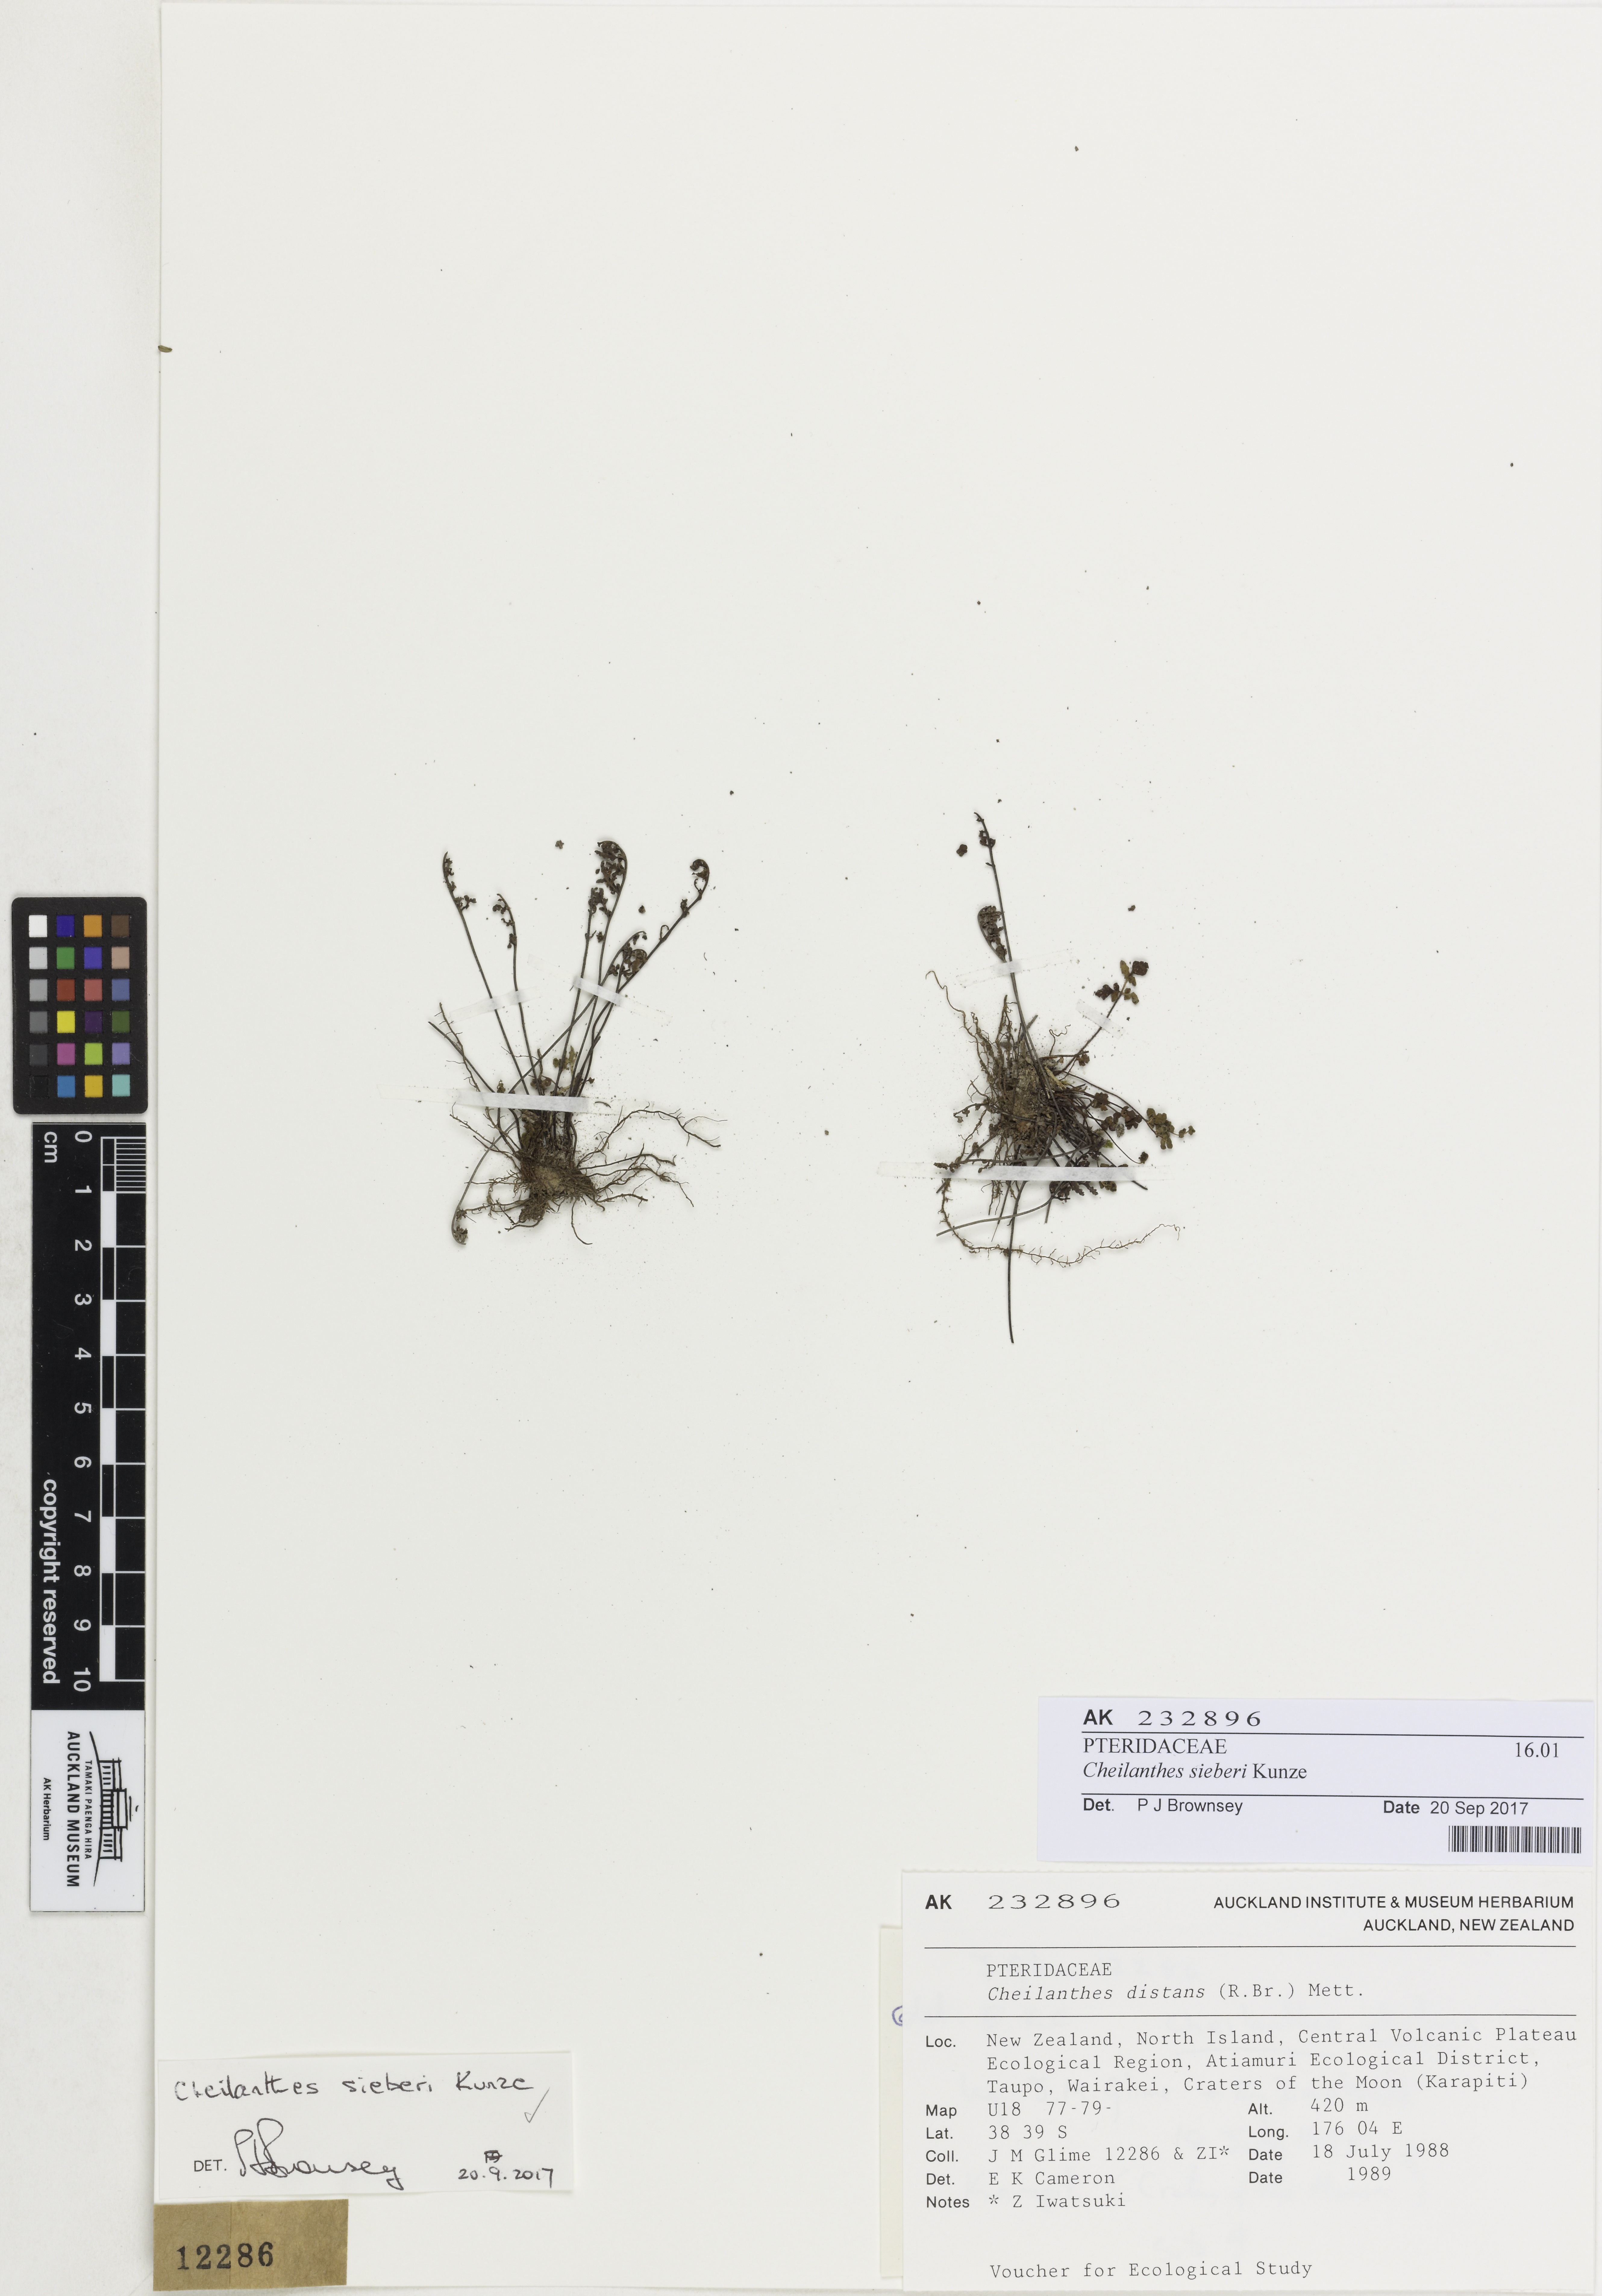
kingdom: Plantae
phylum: Tracheophyta
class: Polypodiopsida
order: Polypodiales
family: Pteridaceae
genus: Cheilanthes
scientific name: Cheilanthes sieberi
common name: Mulga fern
